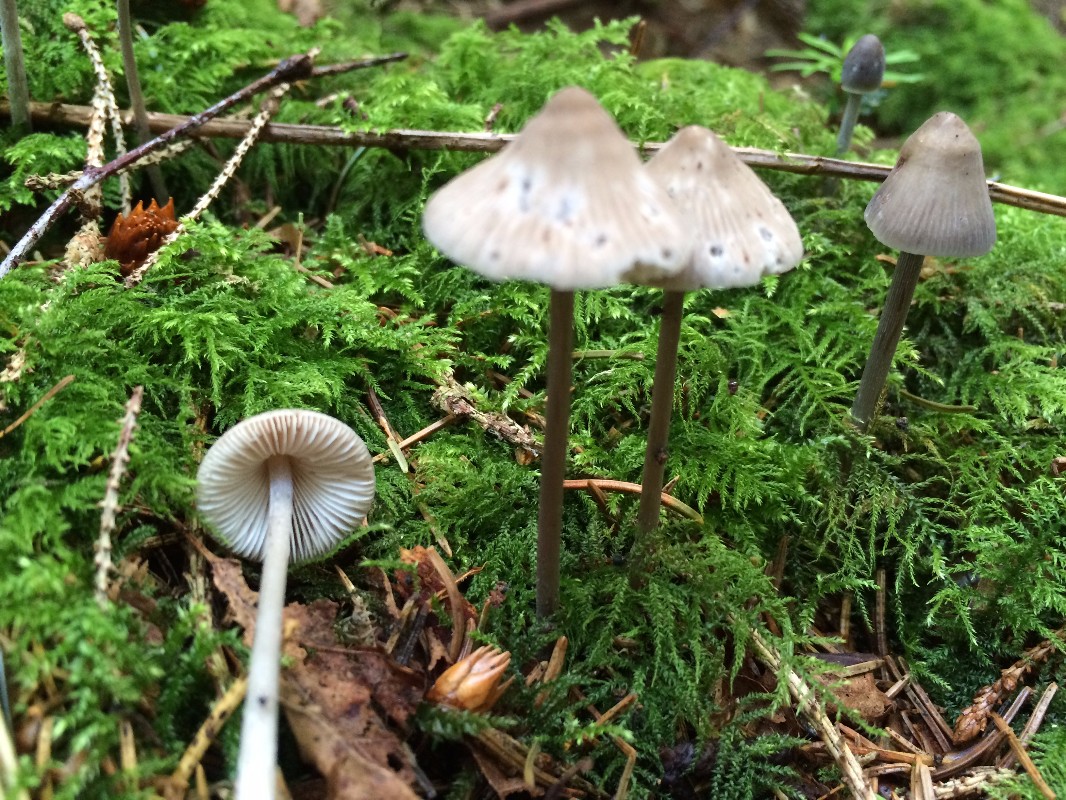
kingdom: Fungi
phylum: Basidiomycota
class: Agaricomycetes
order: Agaricales
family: Mycenaceae
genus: Mycena
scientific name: Mycena polygramma
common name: mangestribet huesvamp
